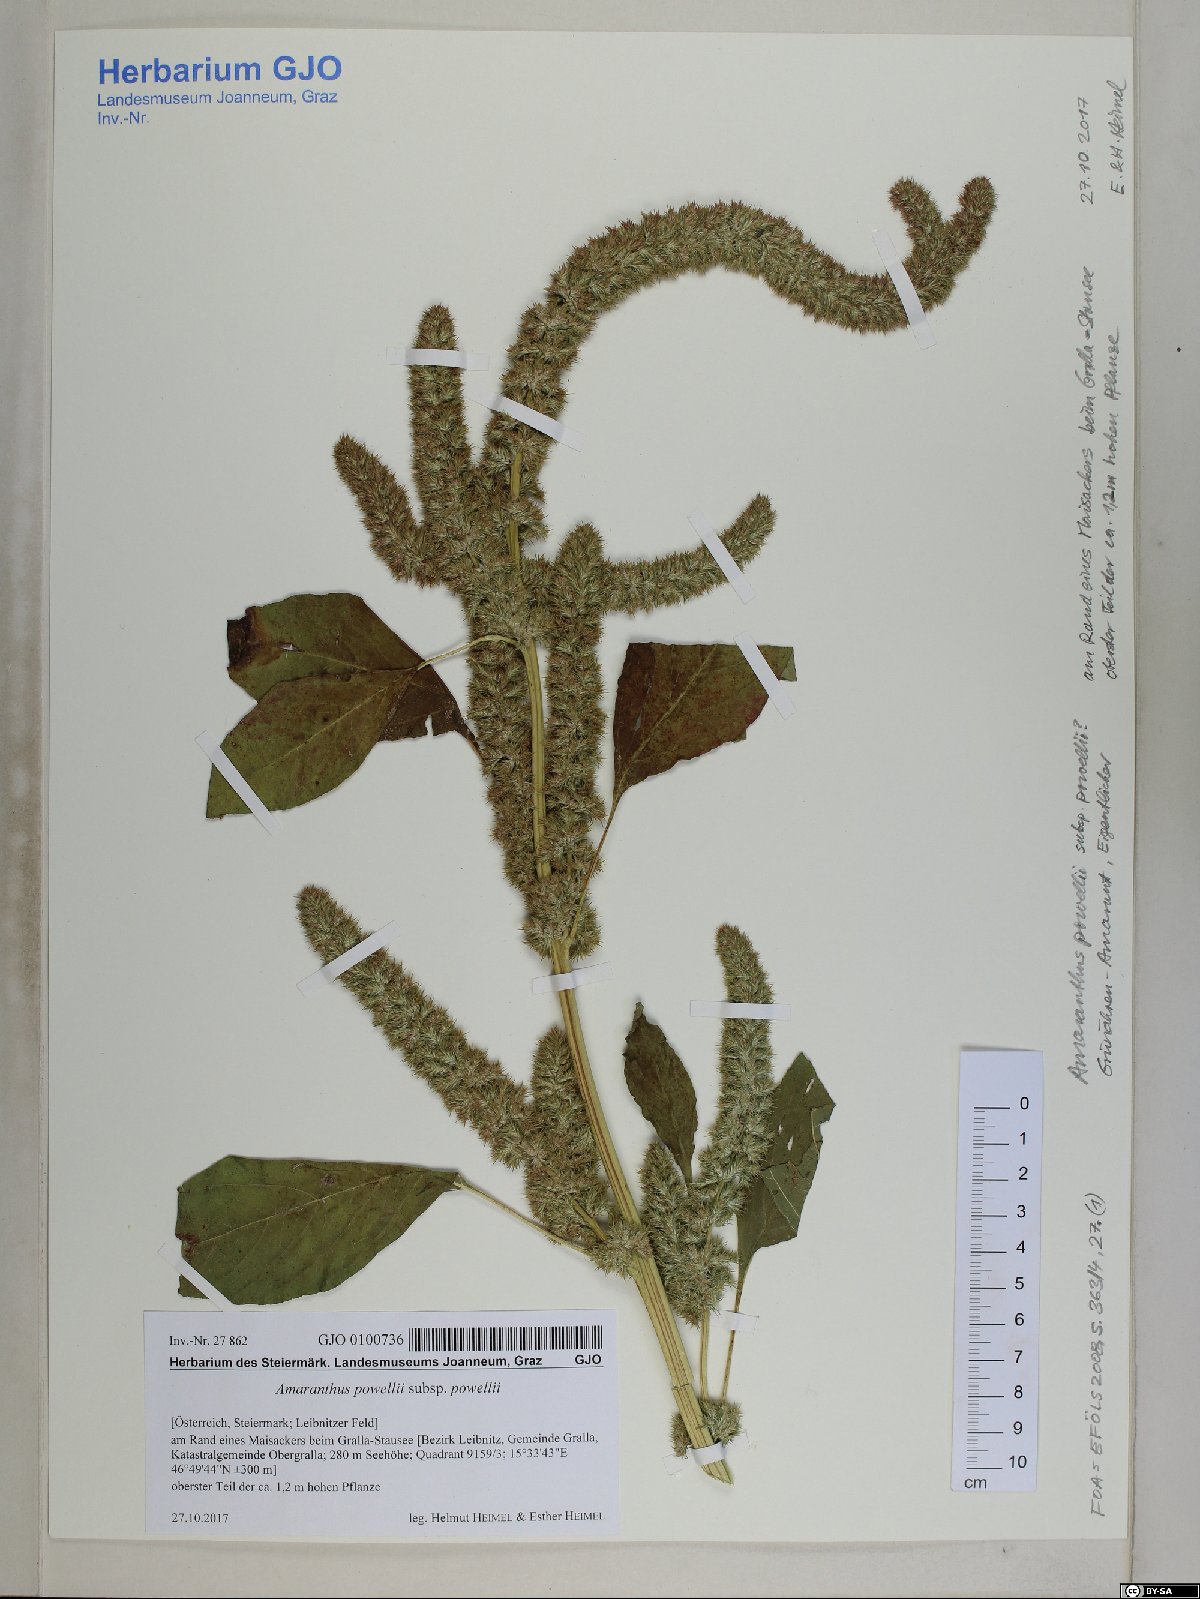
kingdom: Plantae
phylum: Tracheophyta
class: Magnoliopsida
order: Caryophyllales
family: Amaranthaceae
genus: Amaranthus
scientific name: Amaranthus powellii
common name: Powell's amaranth
